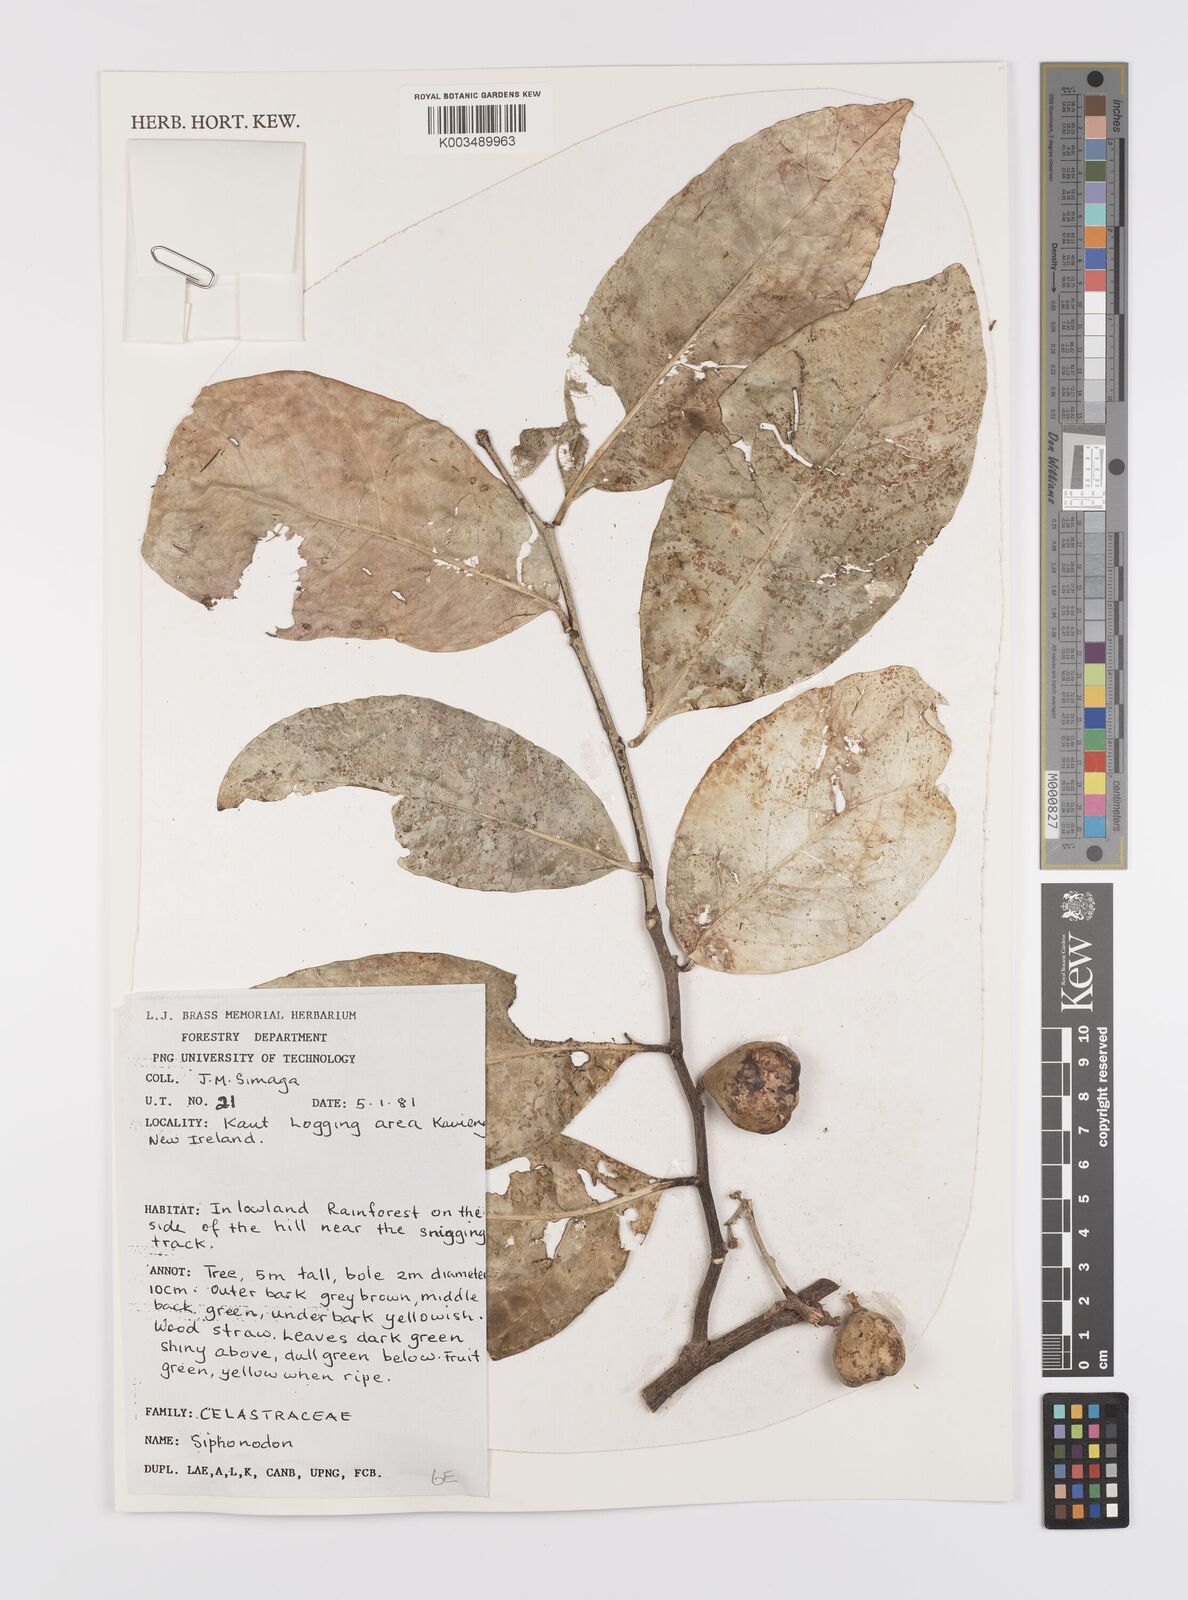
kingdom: Plantae
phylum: Tracheophyta
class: Magnoliopsida
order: Celastrales
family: Celastraceae
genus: Siphonodon
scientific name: Siphonodon
